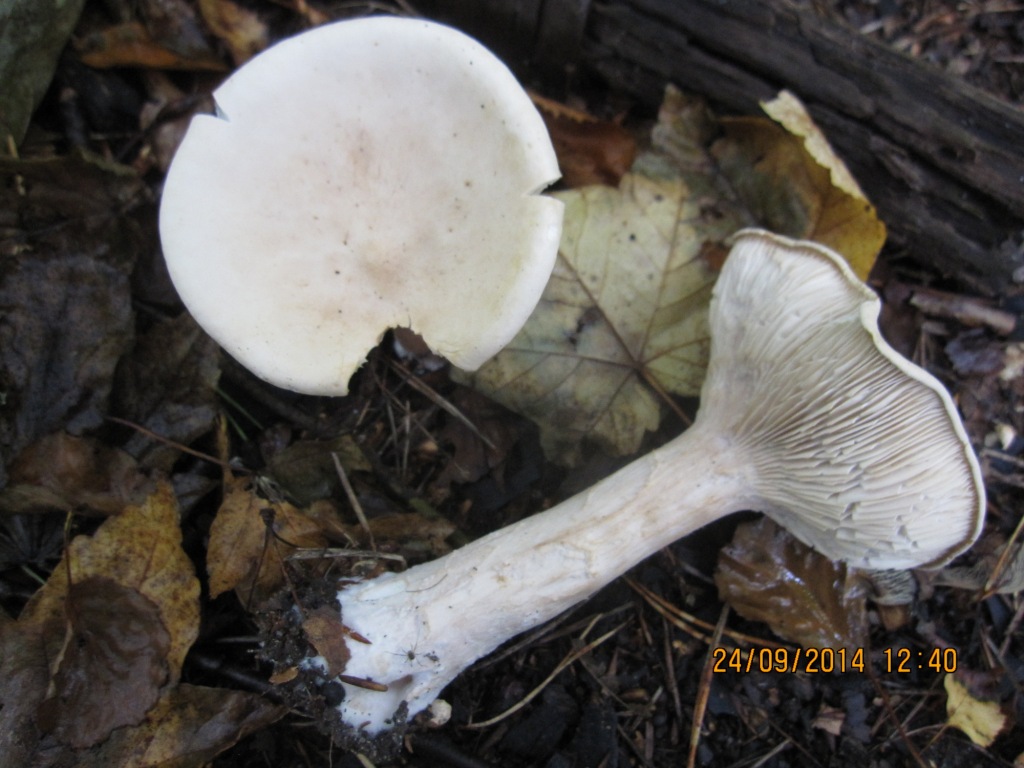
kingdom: Fungi
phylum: Basidiomycota
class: Agaricomycetes
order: Agaricales
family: Tricholomataceae
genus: Infundibulicybe
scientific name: Infundibulicybe geotropa
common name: stor tragthat
